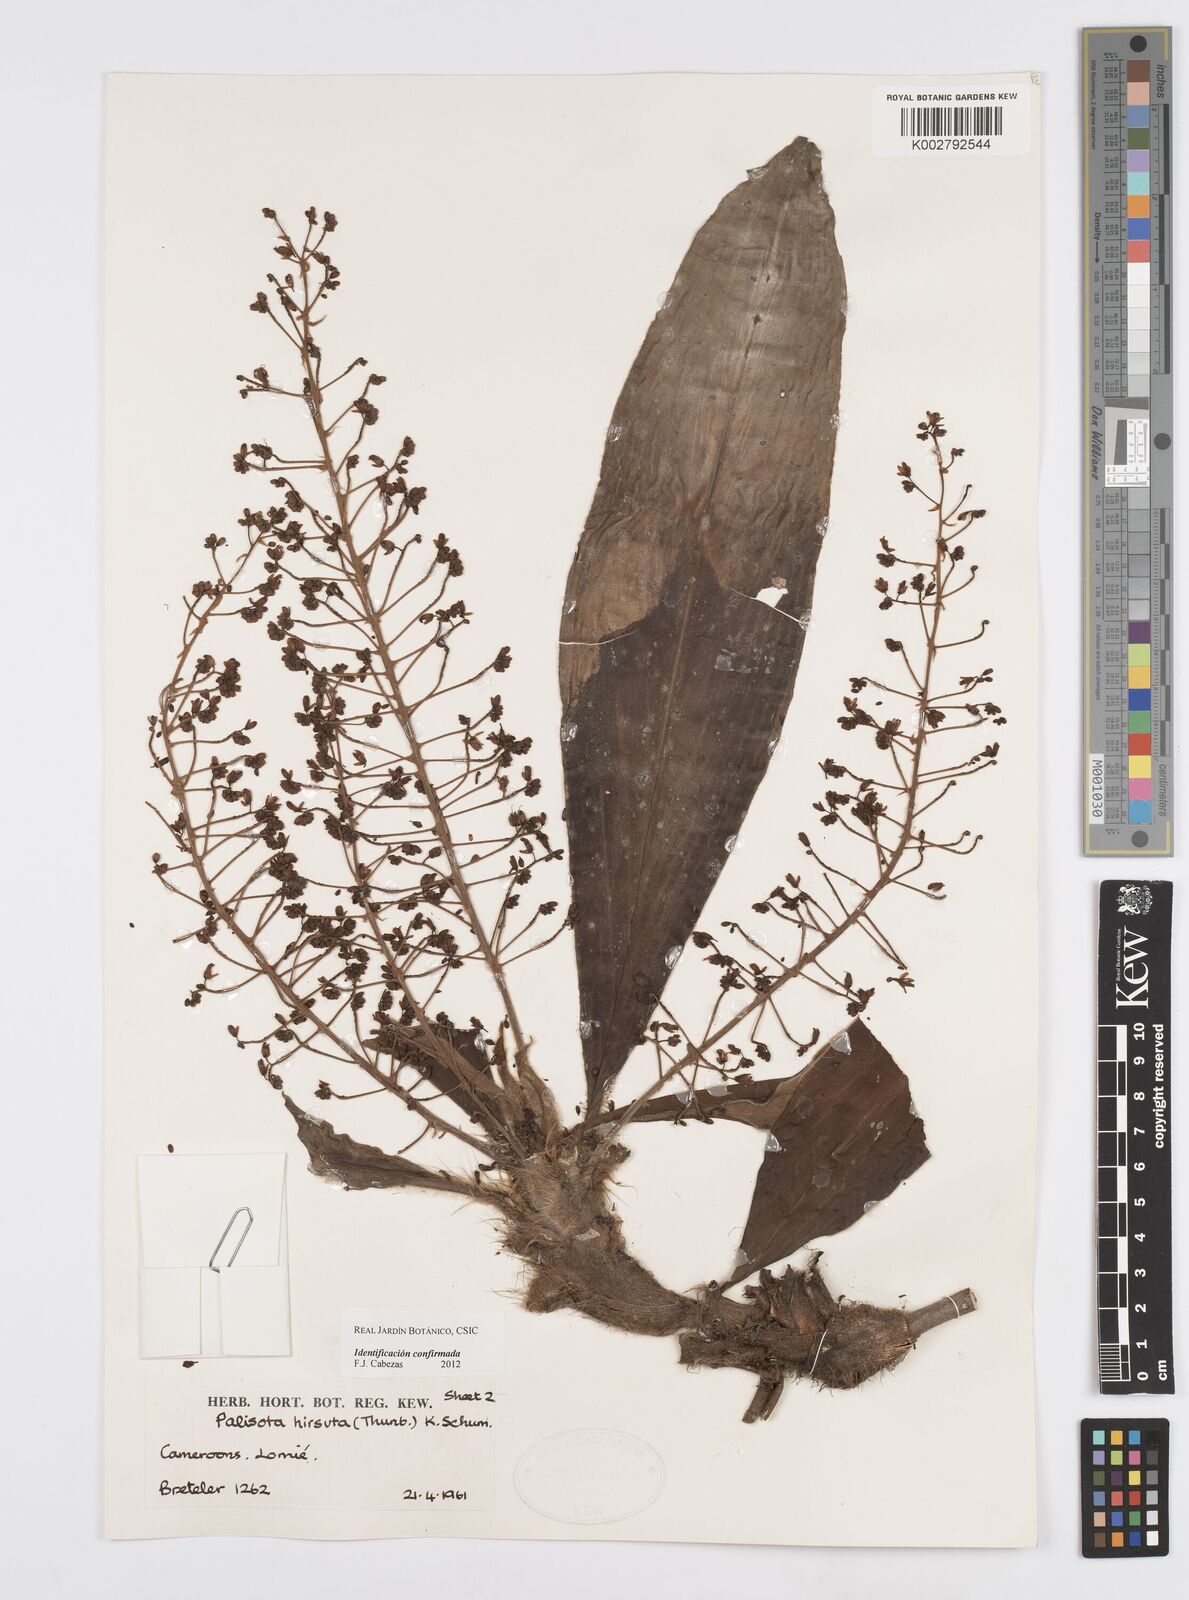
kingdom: Plantae
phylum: Tracheophyta
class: Liliopsida
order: Commelinales
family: Commelinaceae
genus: Palisota
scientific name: Palisota hirsuta
